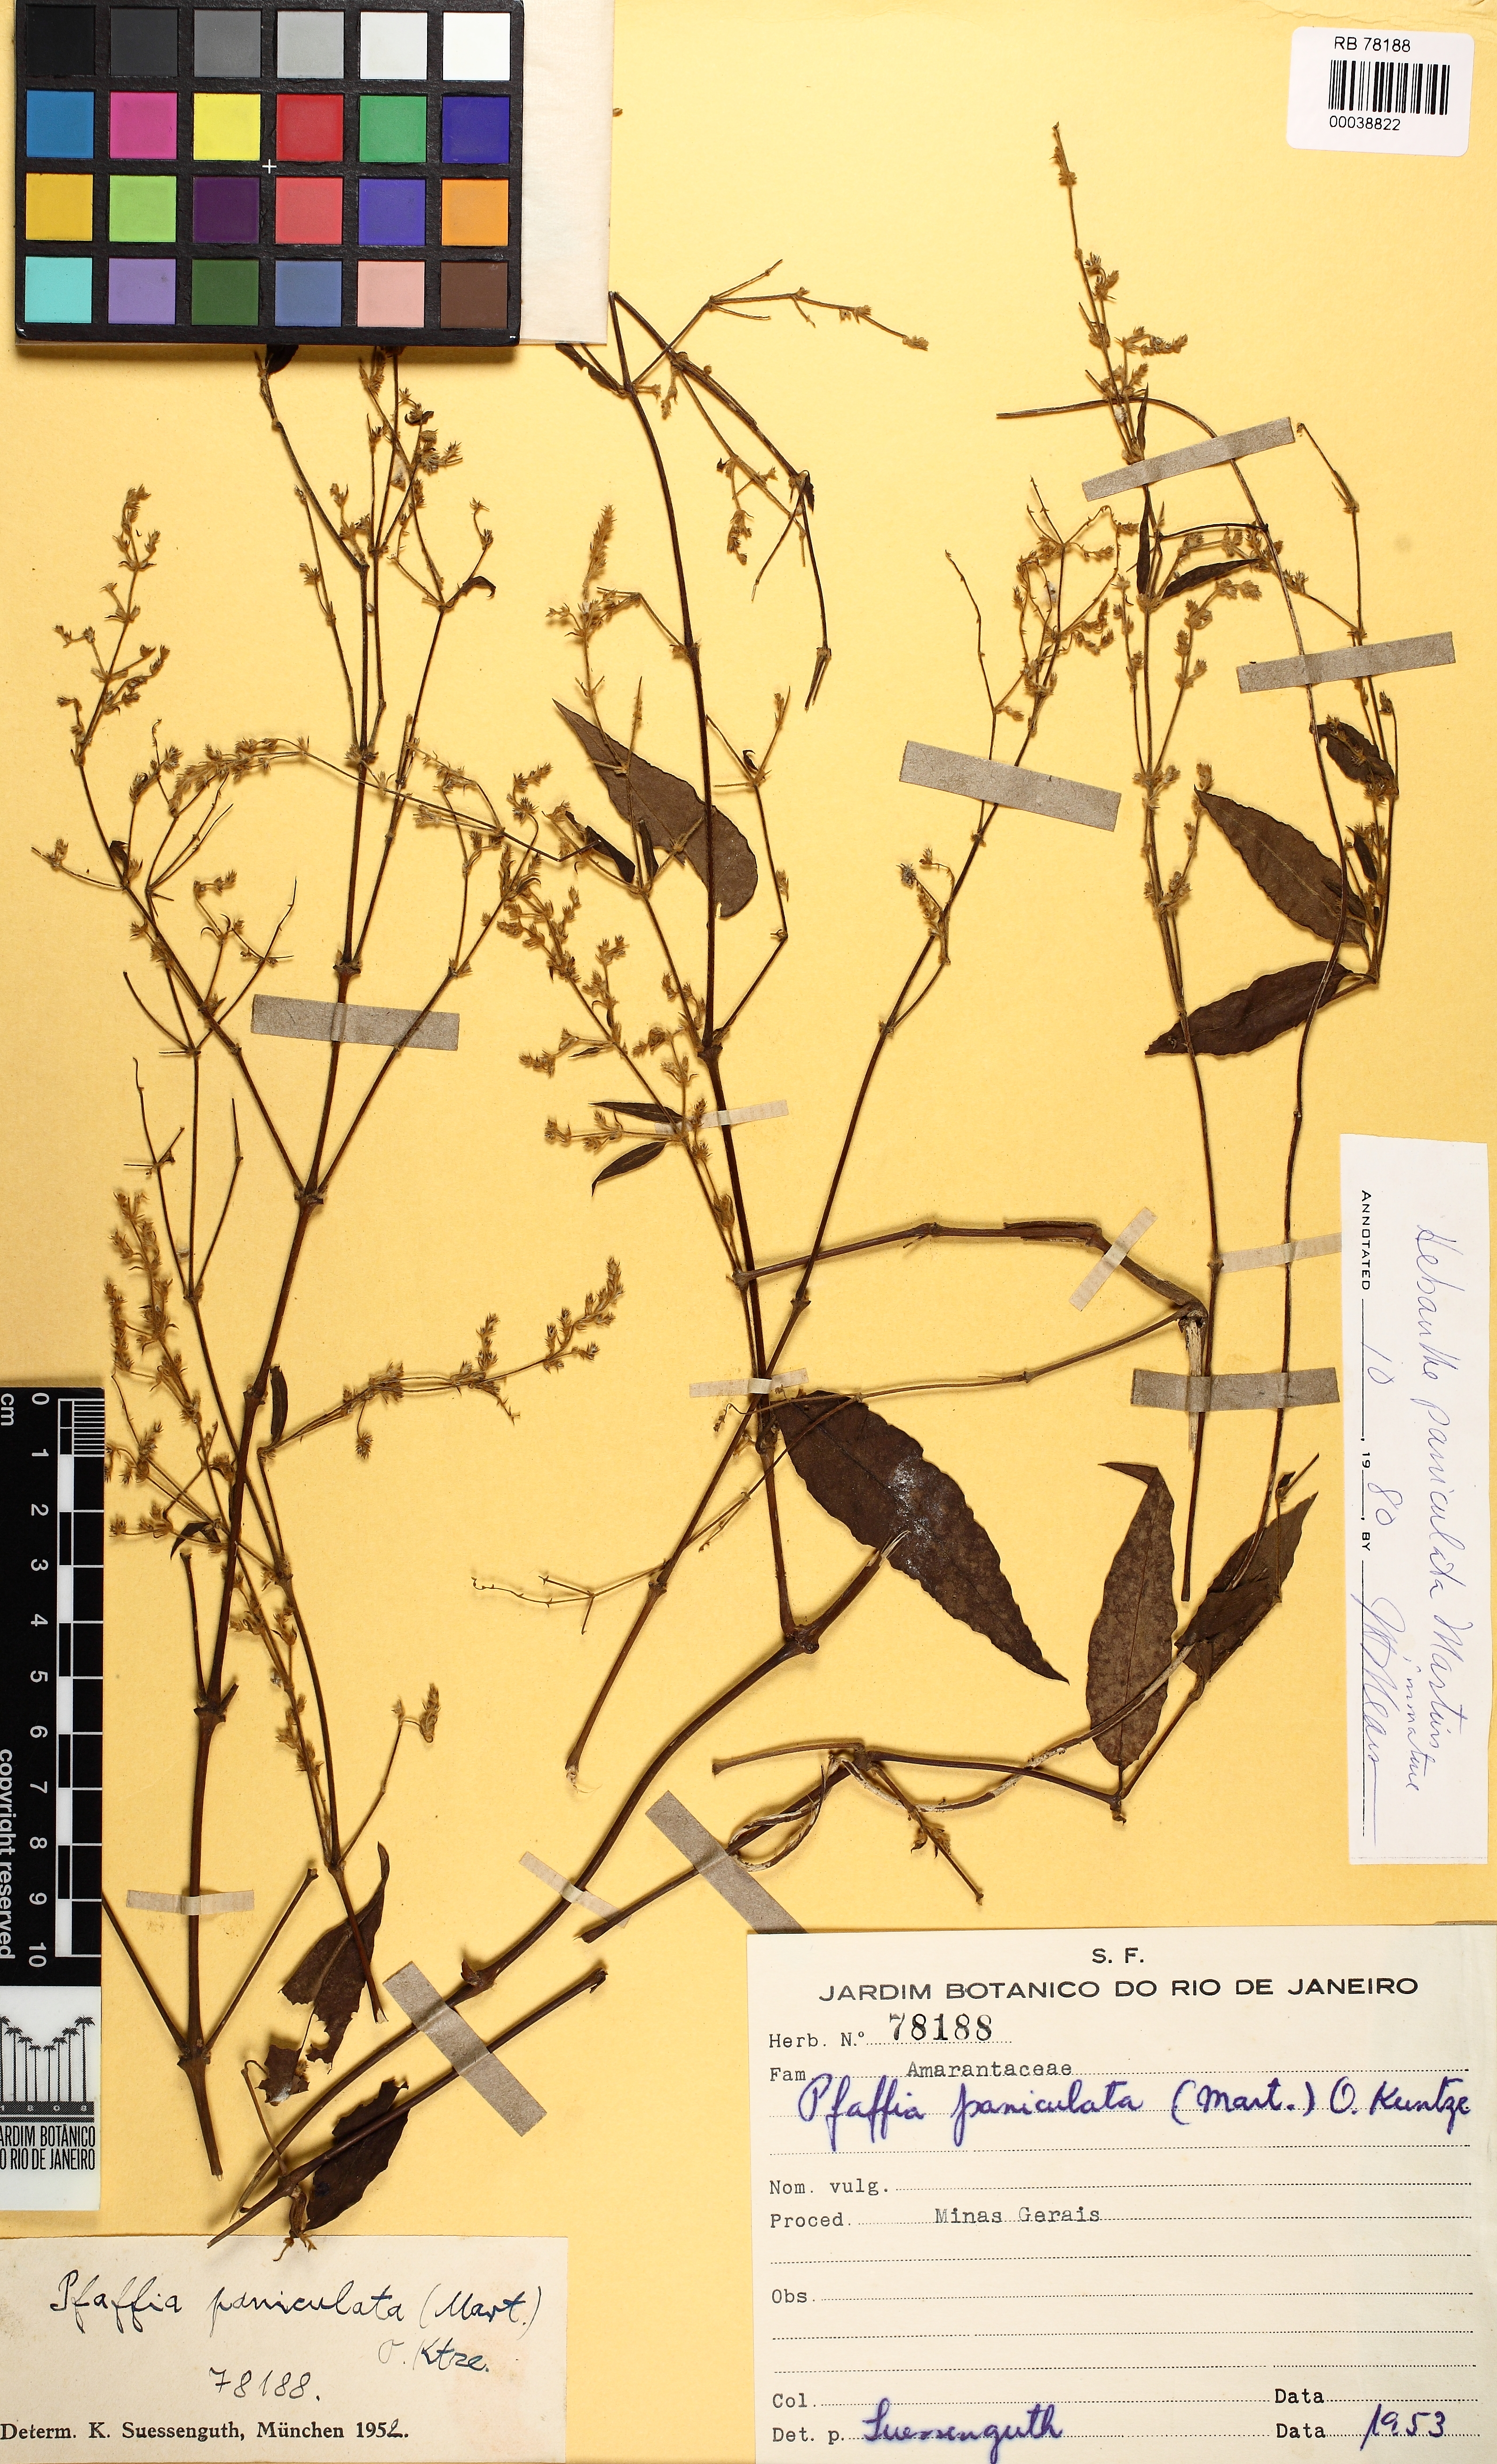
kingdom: Plantae
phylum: Tracheophyta
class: Magnoliopsida
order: Caryophyllales
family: Amaranthaceae
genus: Hebanthe
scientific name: Hebanthe erianthos
